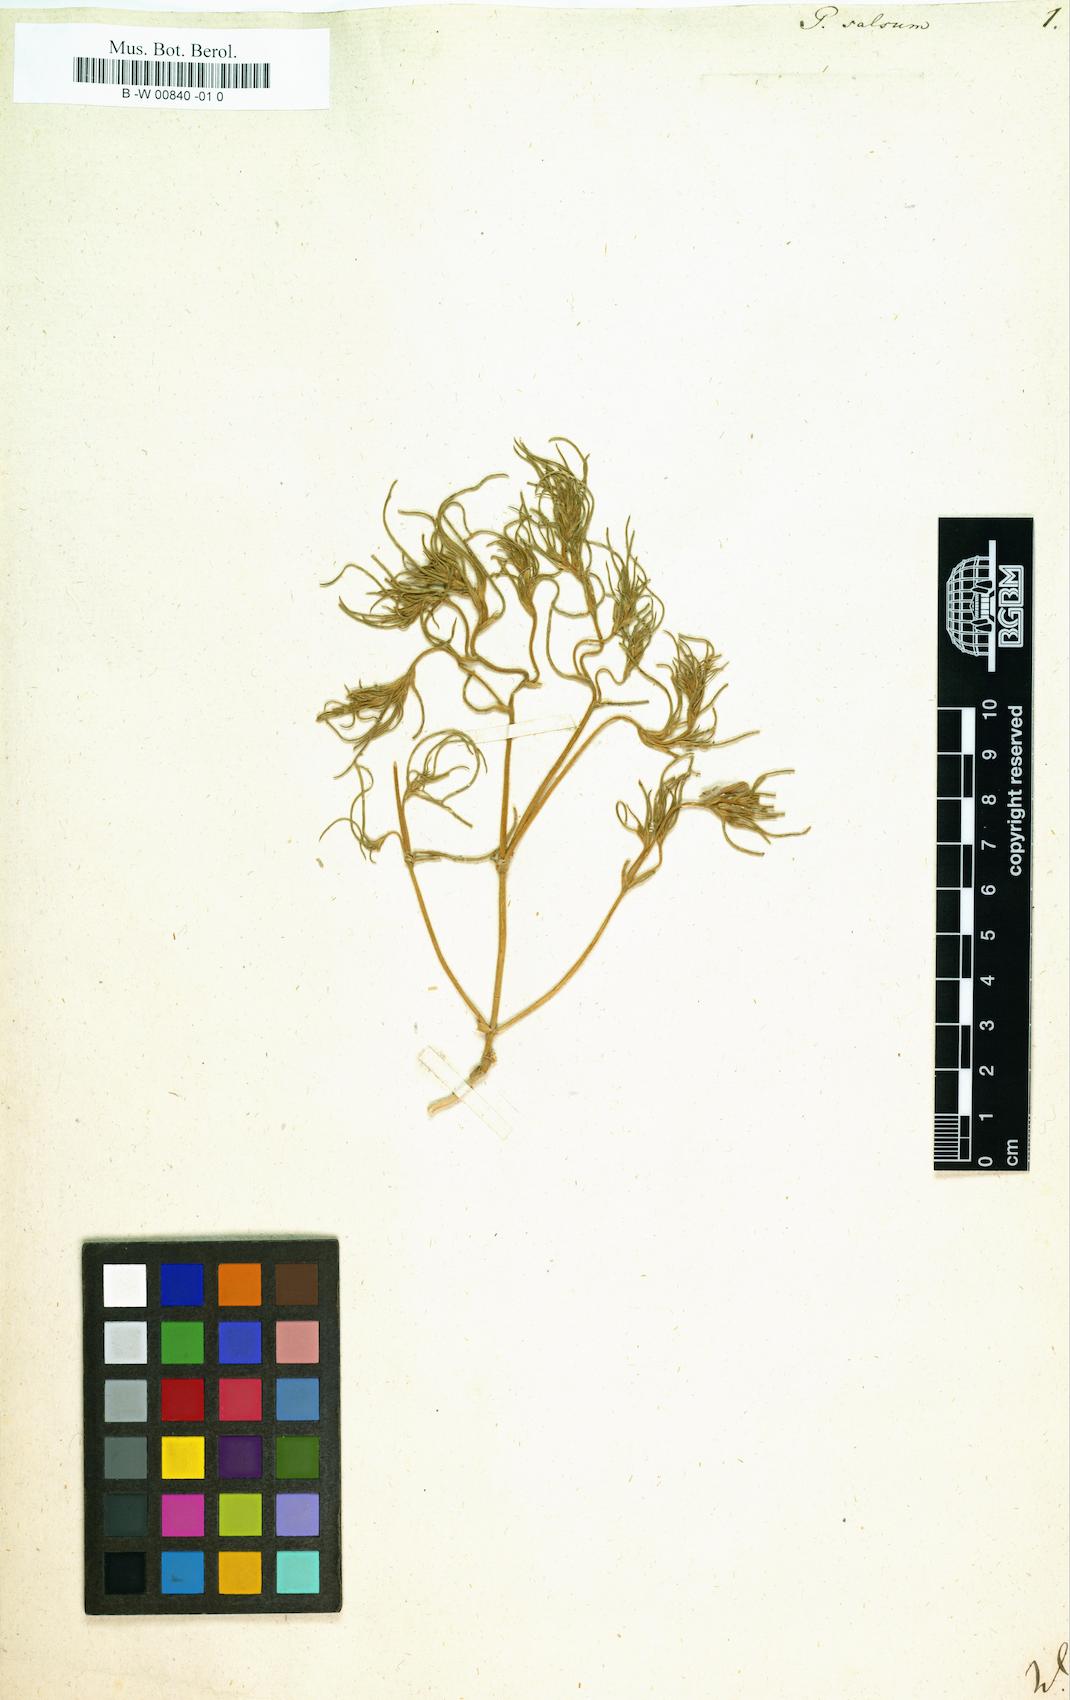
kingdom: Plantae
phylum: Tracheophyta
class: Magnoliopsida
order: Caryophyllales
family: Amaranthaceae
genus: Petrosimonia
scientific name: Petrosimonia triandra
